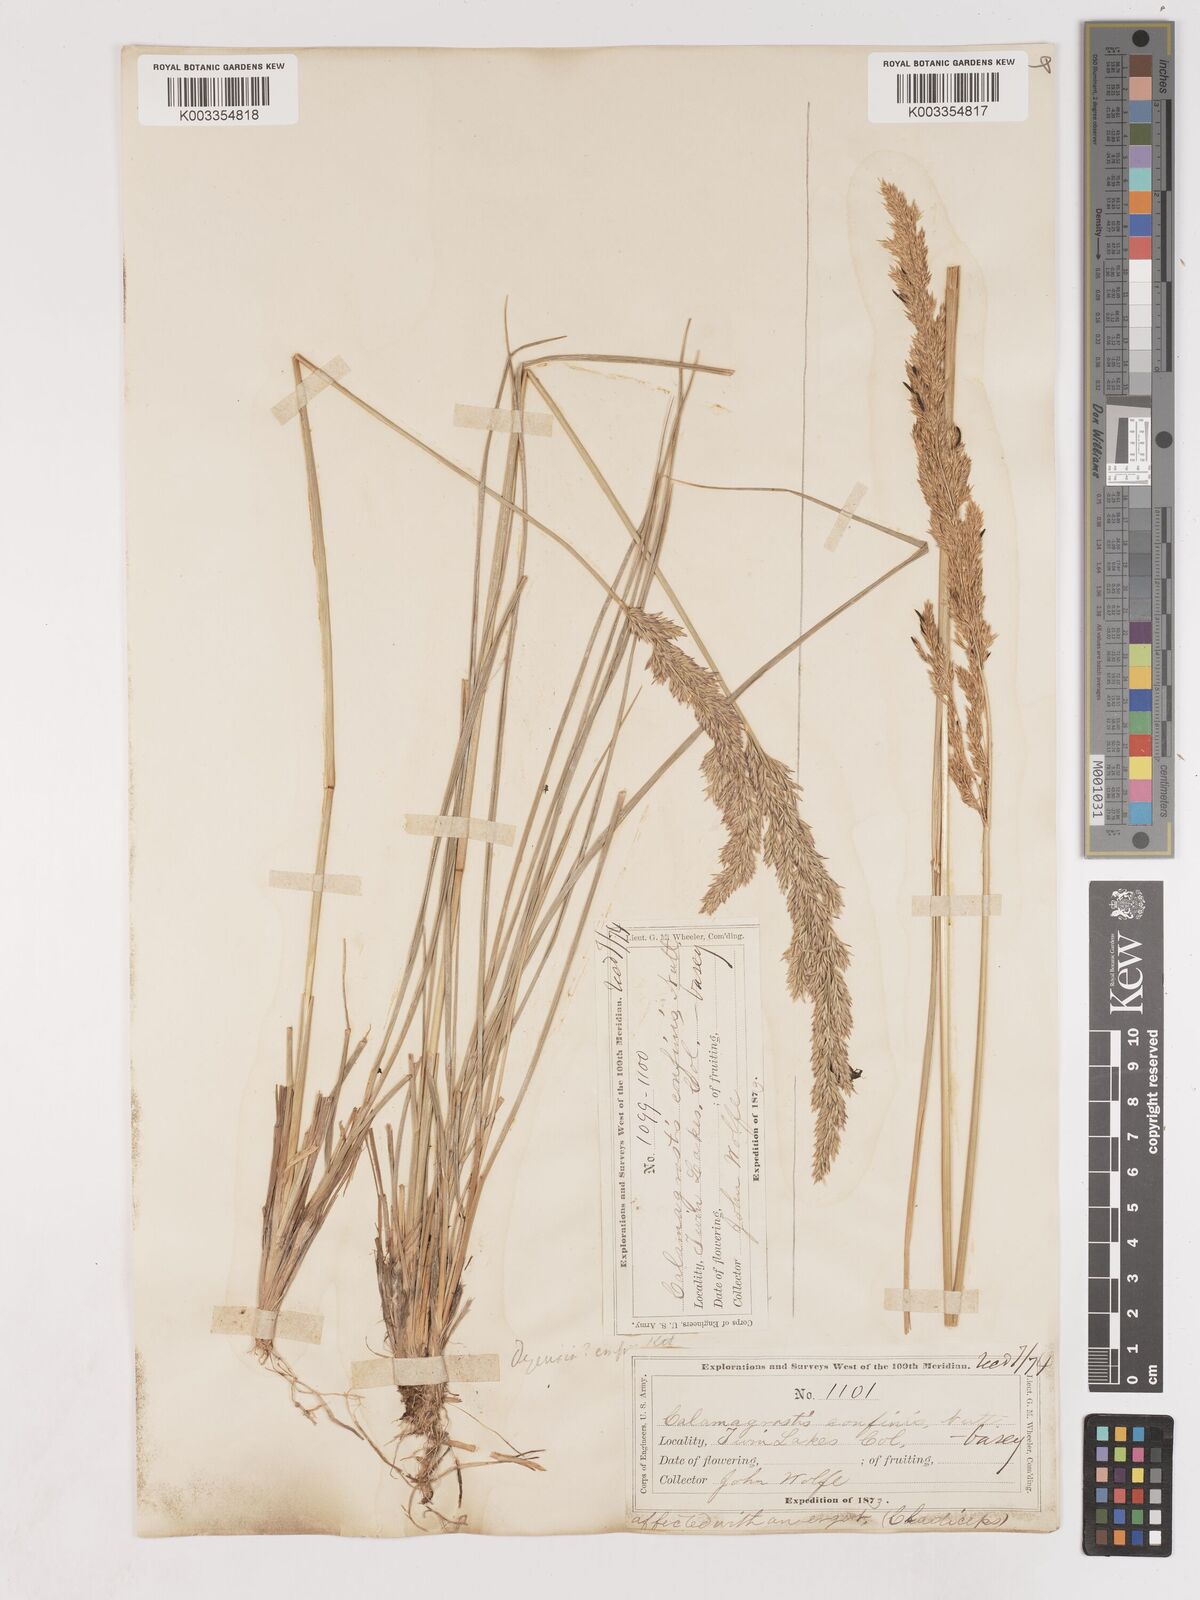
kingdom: Plantae
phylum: Tracheophyta
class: Liliopsida
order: Poales
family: Poaceae
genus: Calamagrostis
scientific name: Calamagrostis
